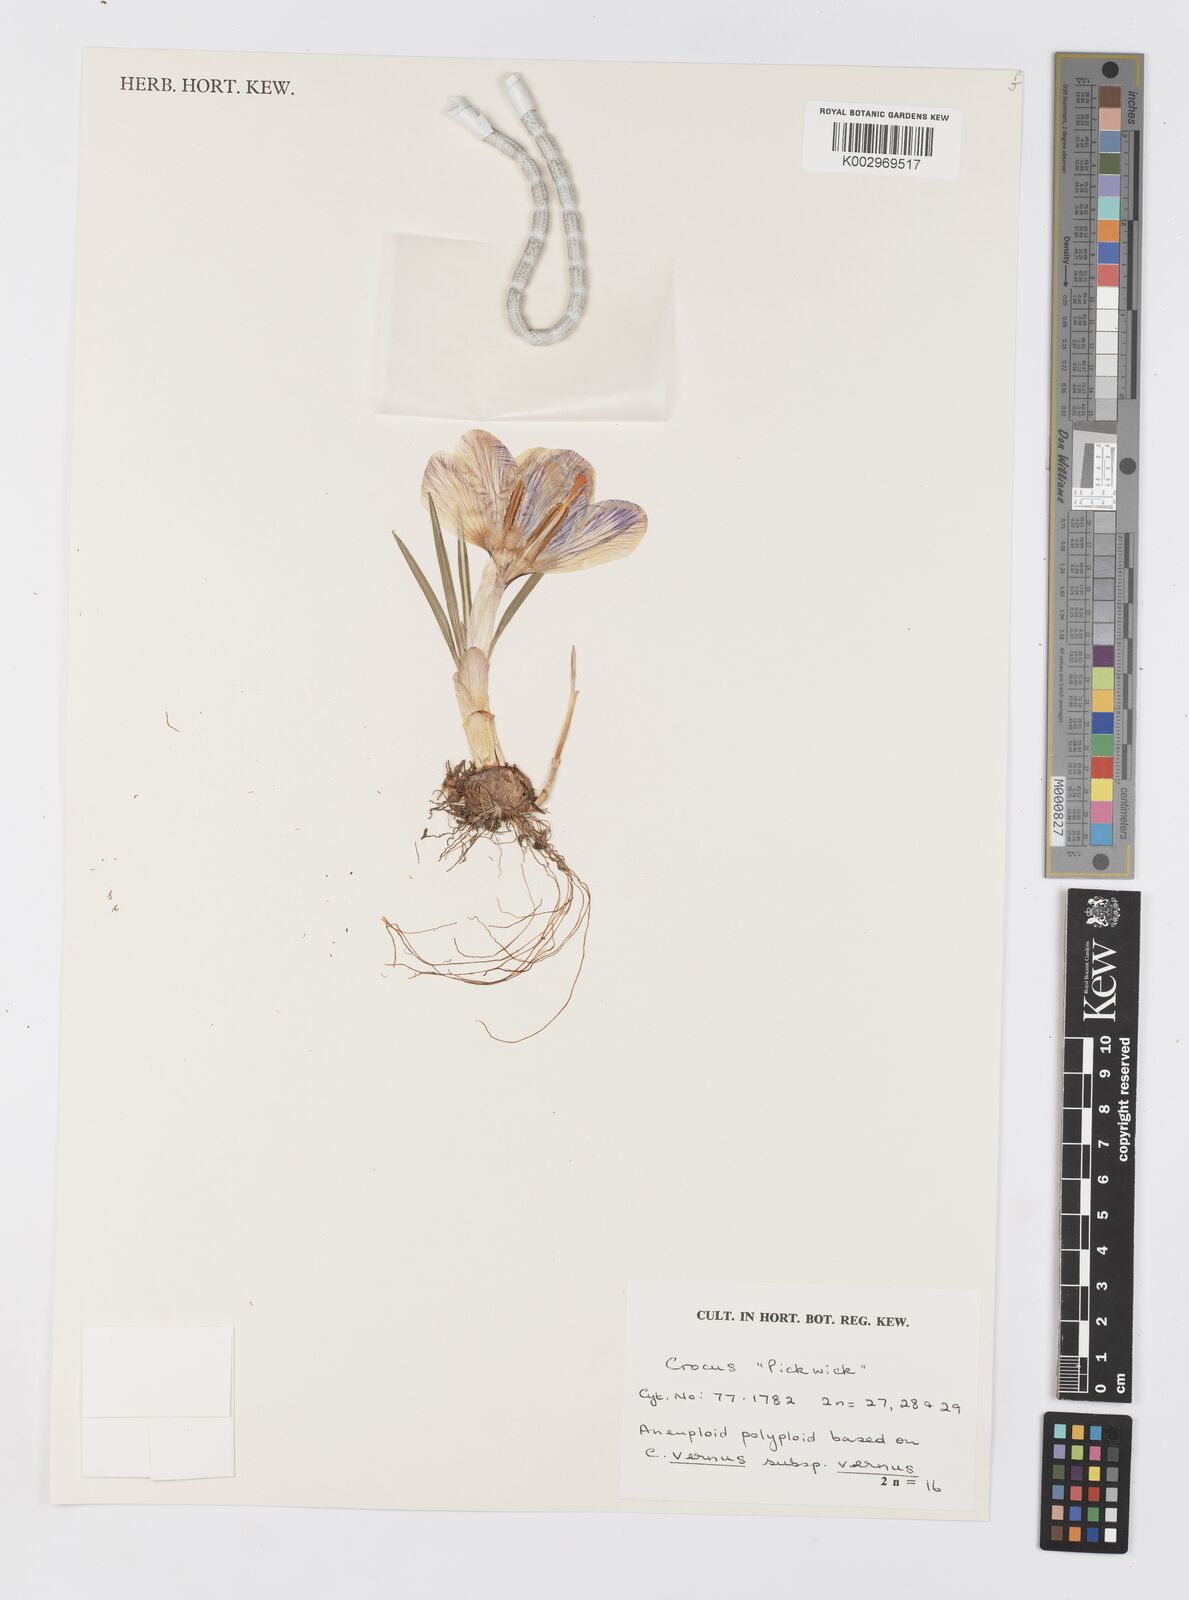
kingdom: Plantae
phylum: Tracheophyta
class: Liliopsida
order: Asparagales
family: Iridaceae
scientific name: Iridaceae
